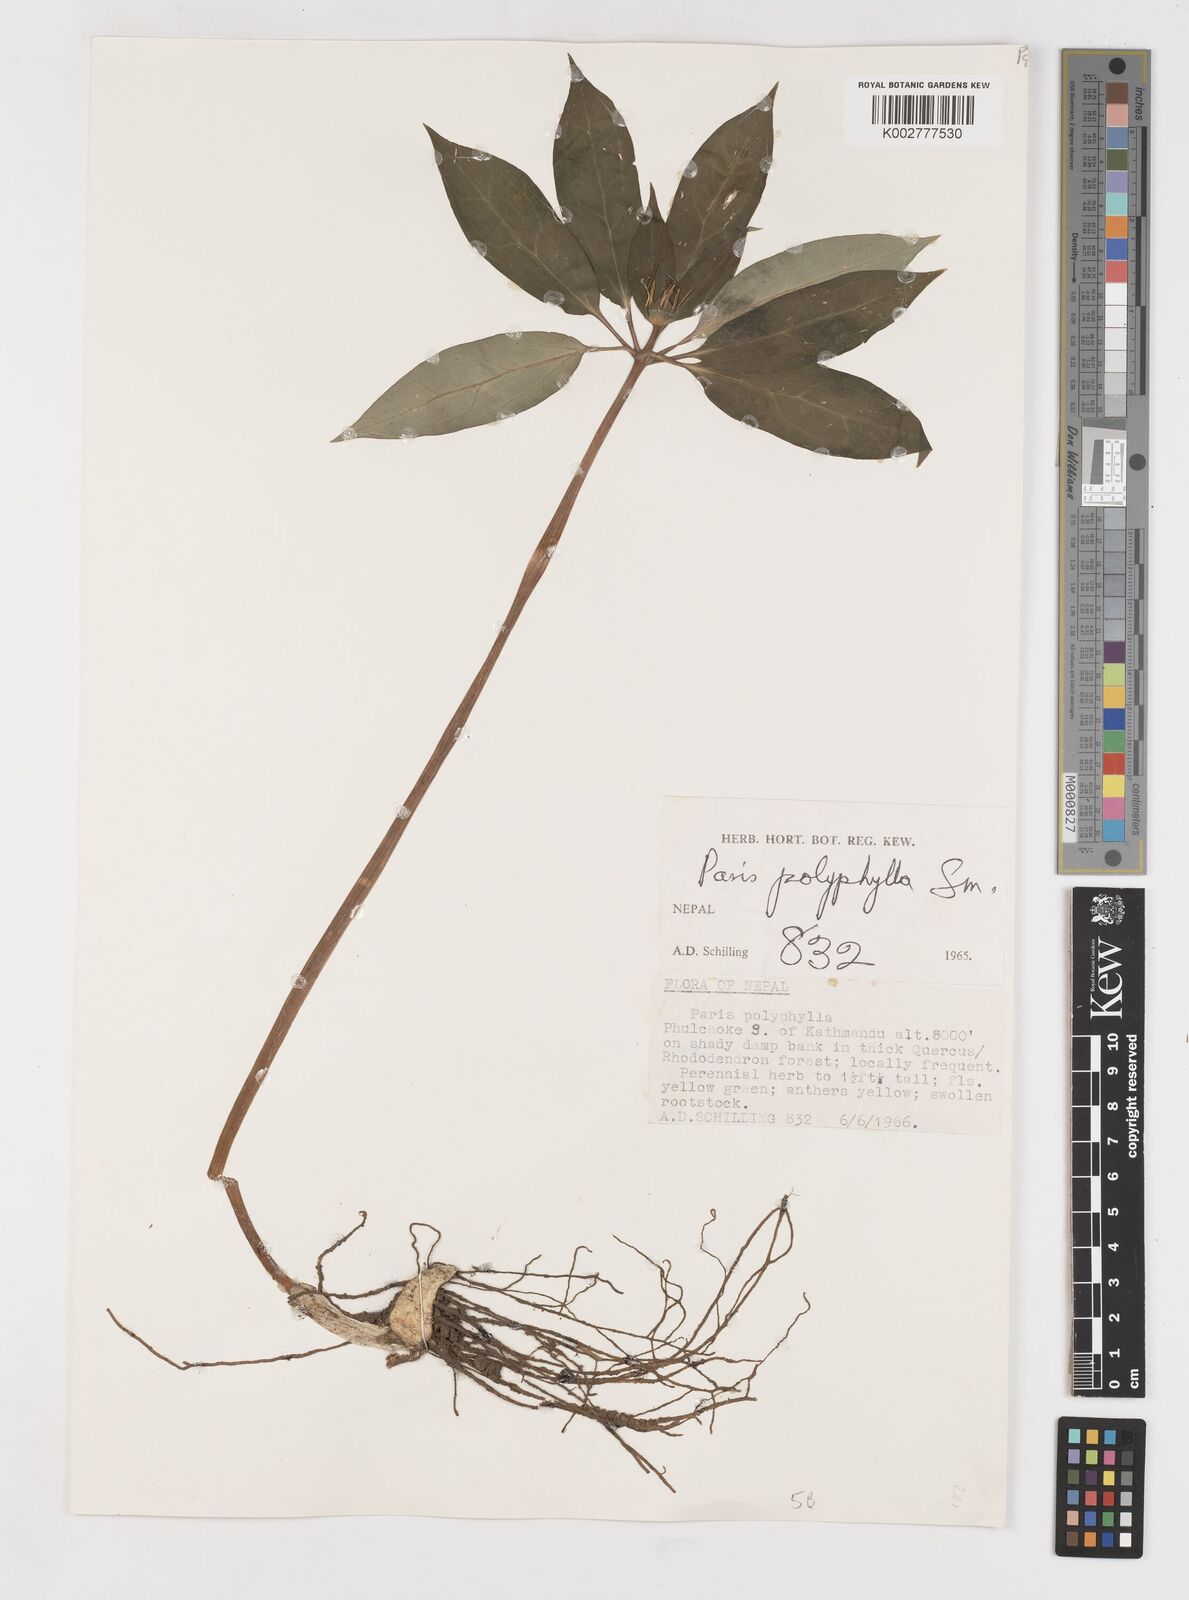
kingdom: Plantae
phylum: Tracheophyta
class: Liliopsida
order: Liliales
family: Melanthiaceae
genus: Paris
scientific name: Paris polyphylla
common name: Love apple
